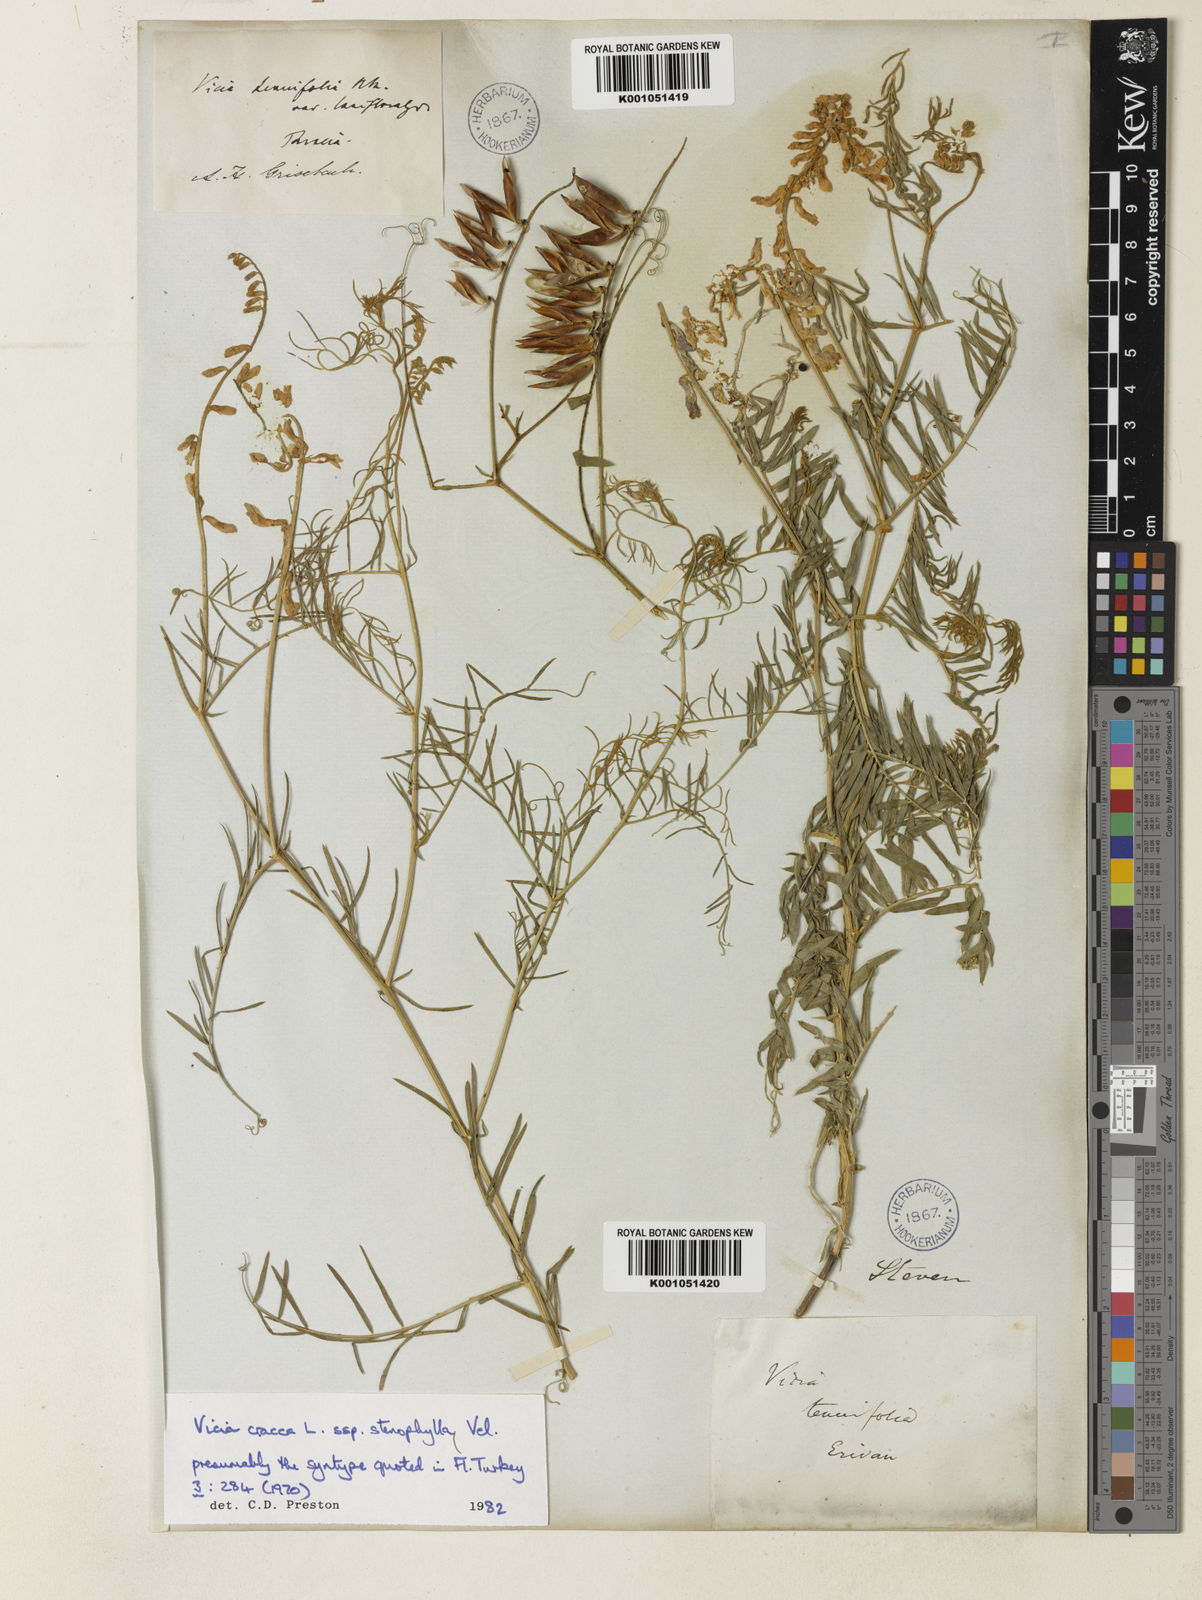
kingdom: Plantae
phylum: Tracheophyta
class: Magnoliopsida
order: Fabales
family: Fabaceae
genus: Vicia
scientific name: Vicia cracca
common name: Bird vetch
